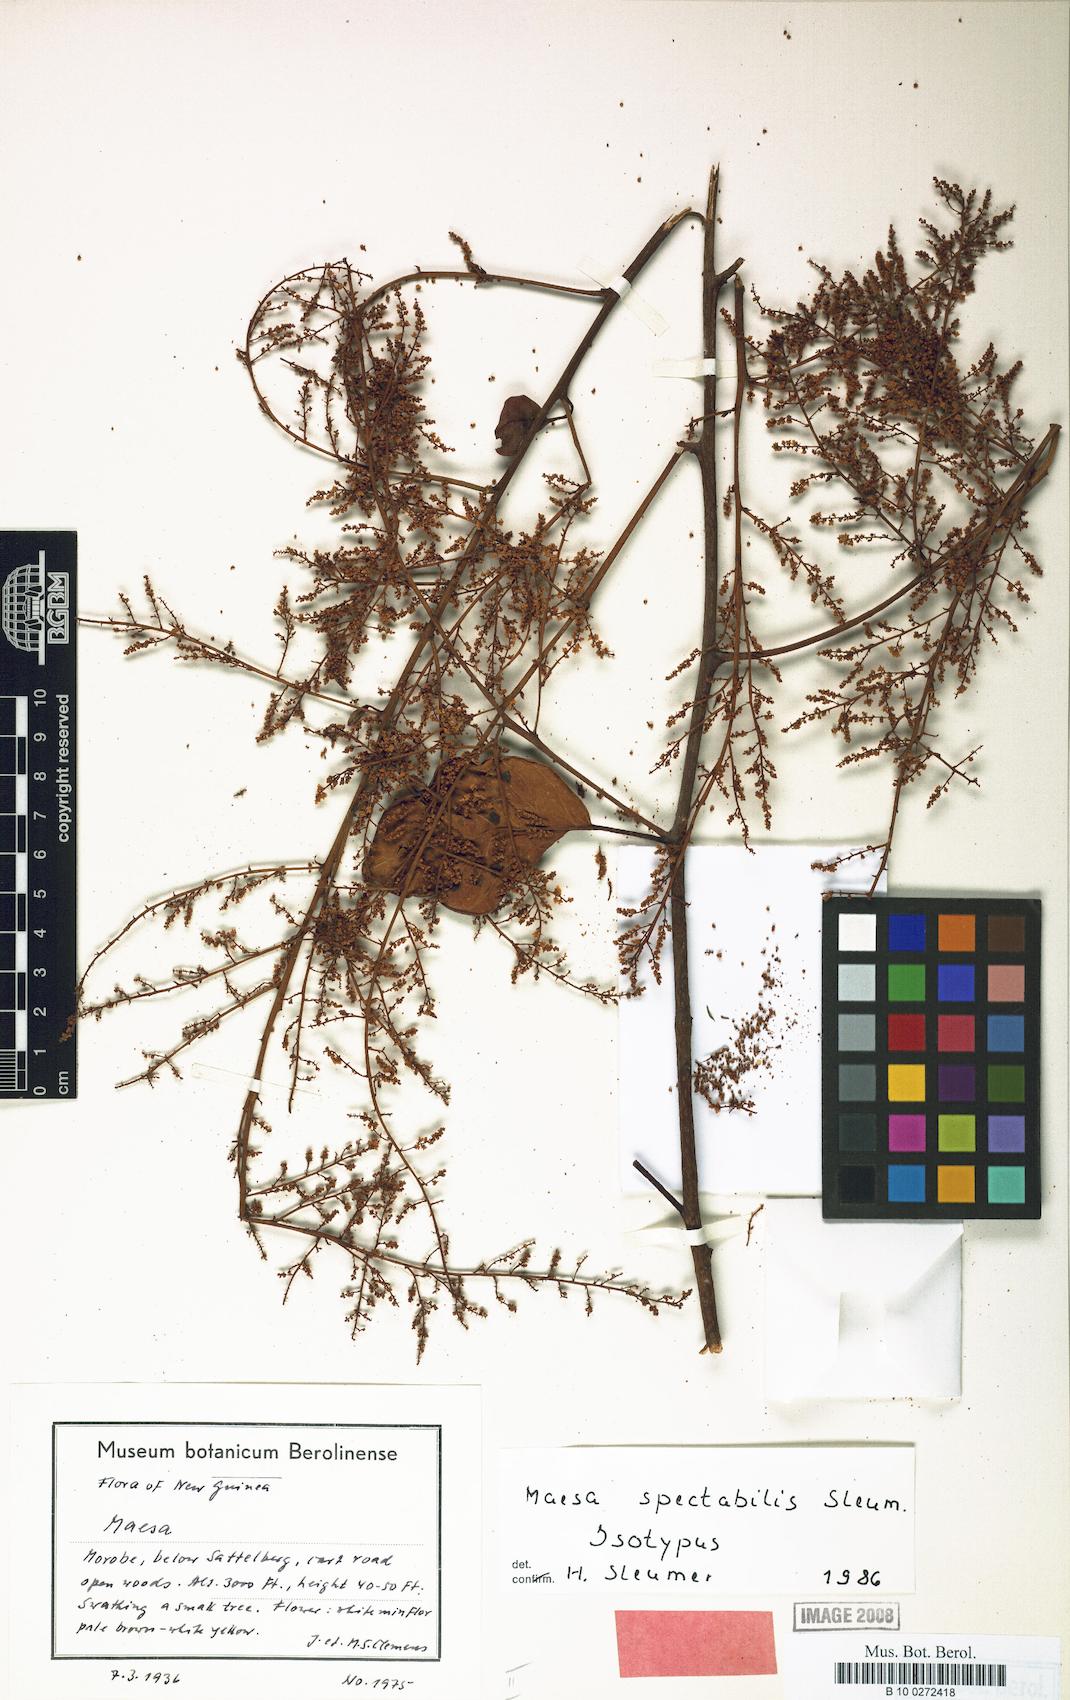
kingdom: Plantae
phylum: Tracheophyta
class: Magnoliopsida
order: Ericales
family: Primulaceae
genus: Maesa
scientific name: Maesa spectabilis
